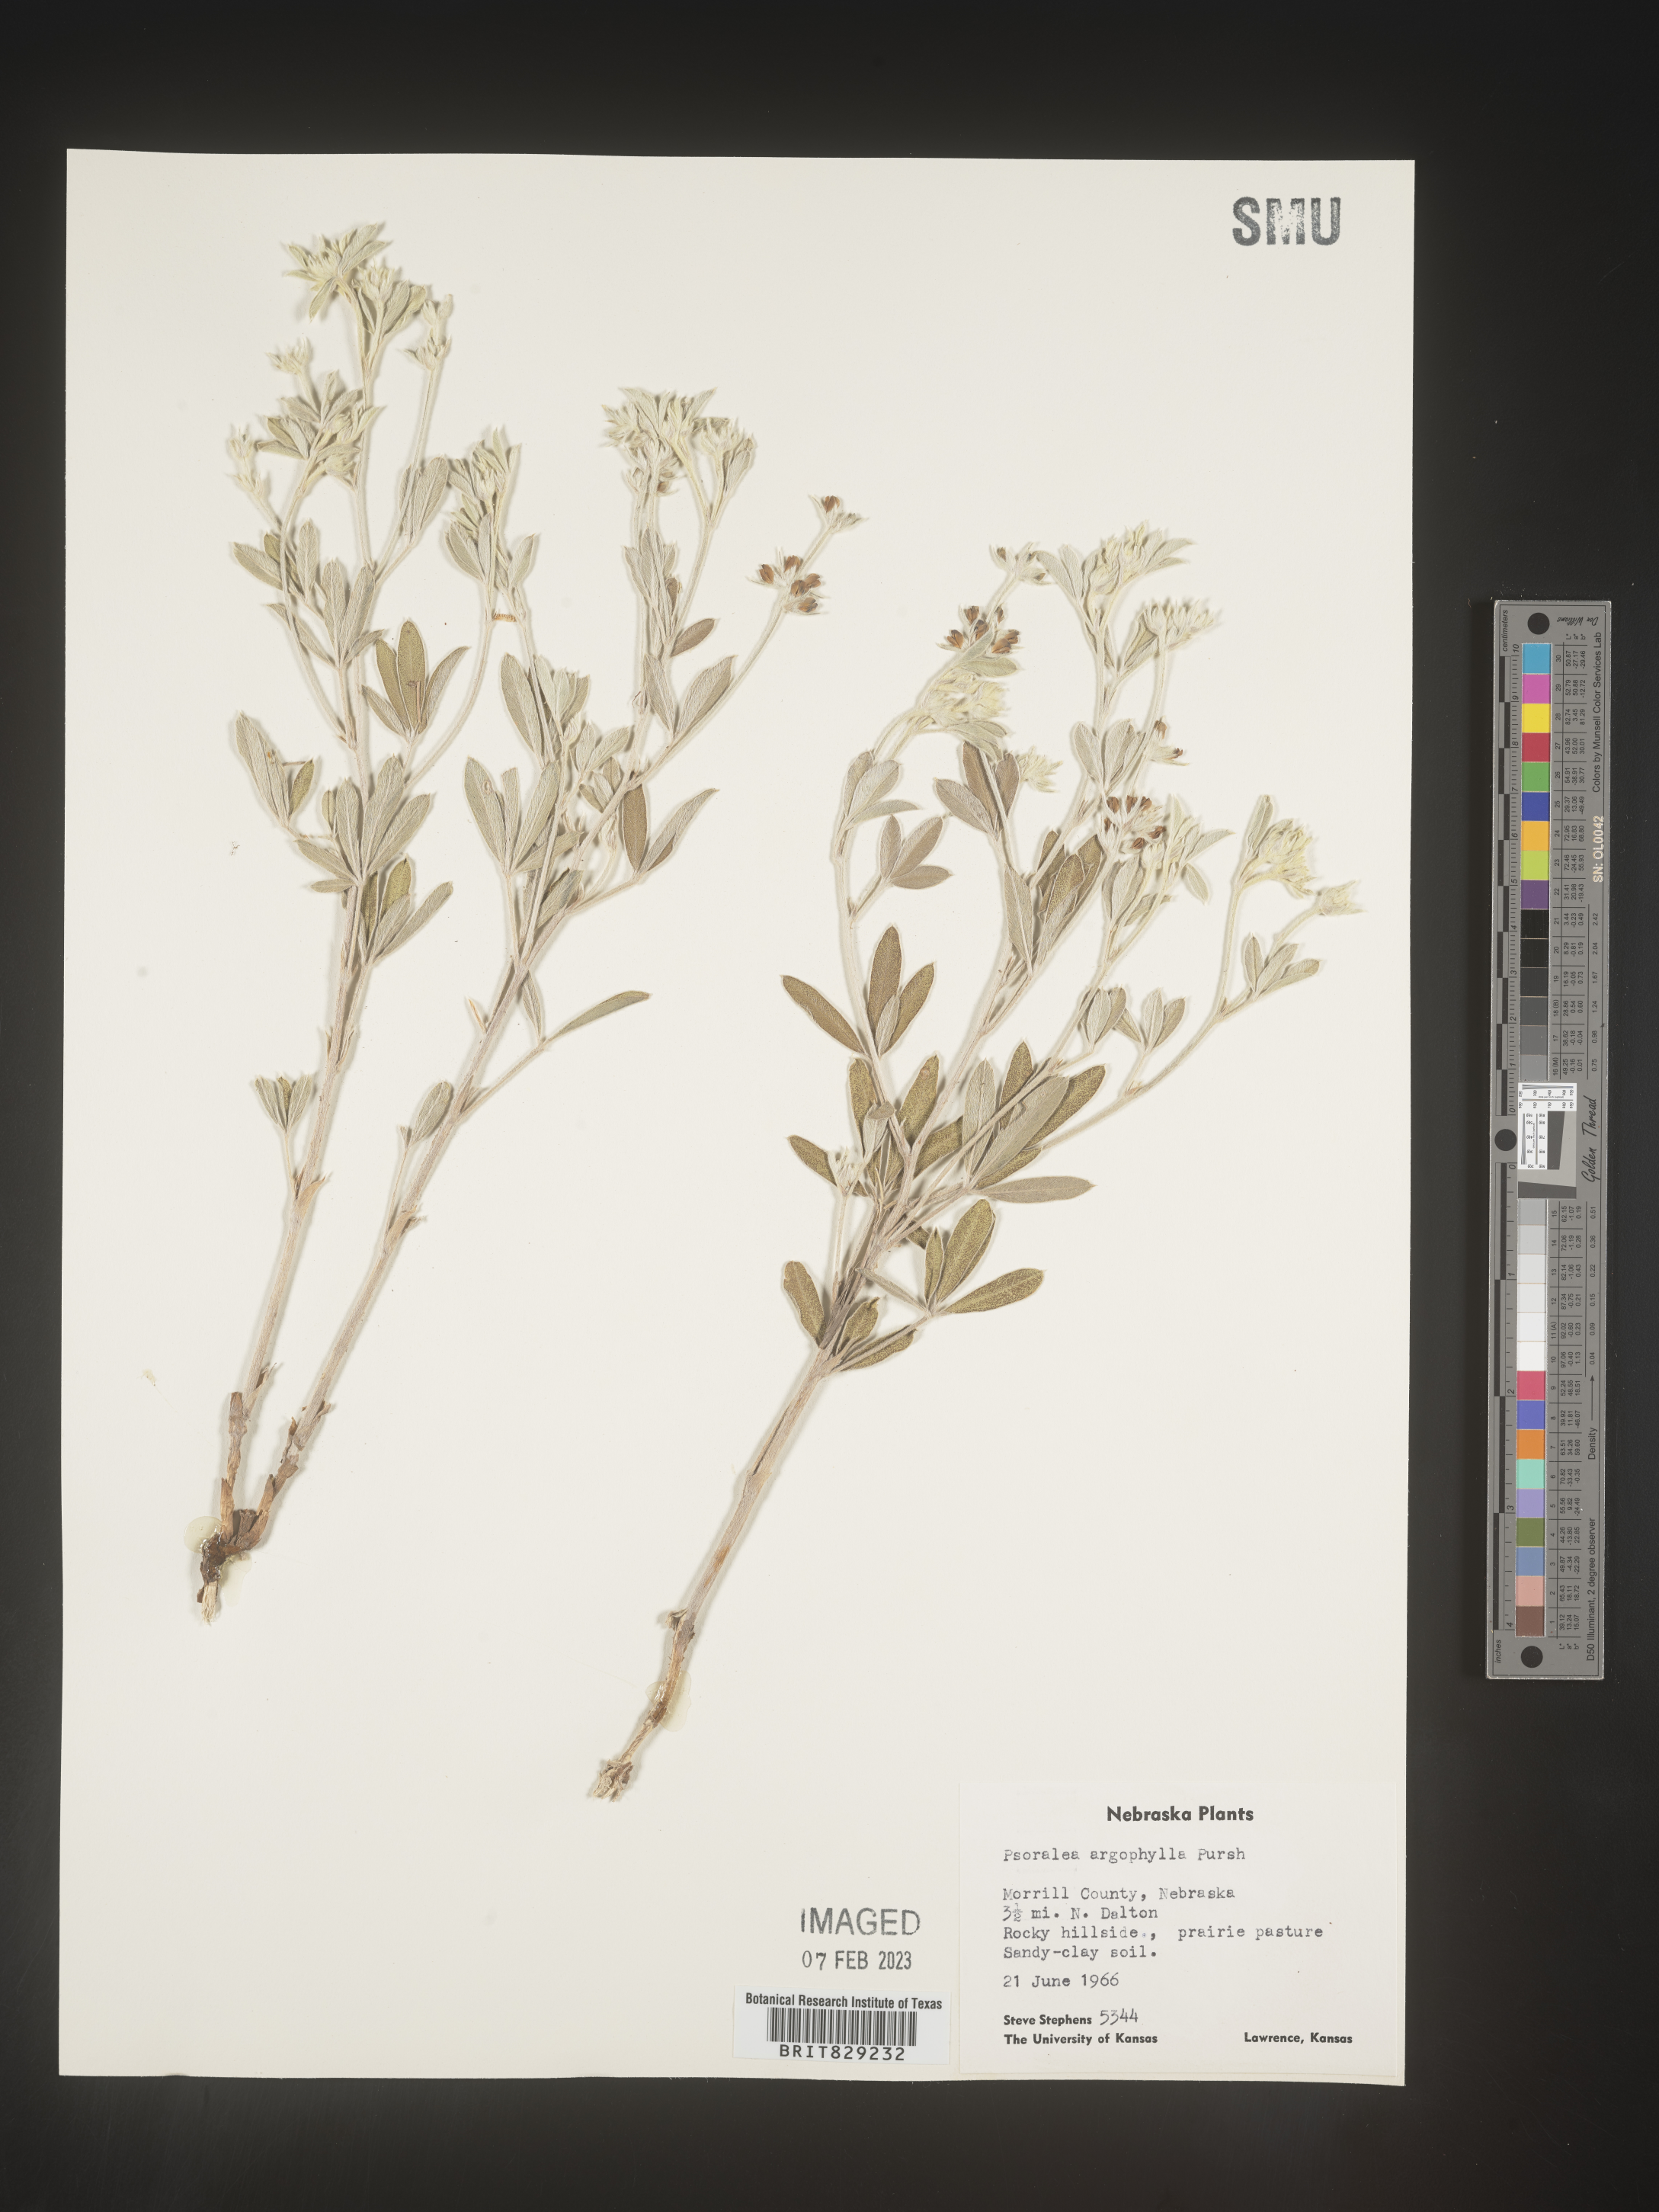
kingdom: Plantae
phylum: Tracheophyta
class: Magnoliopsida
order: Fabales
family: Fabaceae
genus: Pediomelum
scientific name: Pediomelum argophyllum
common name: Silver-leaved indian breadroot
